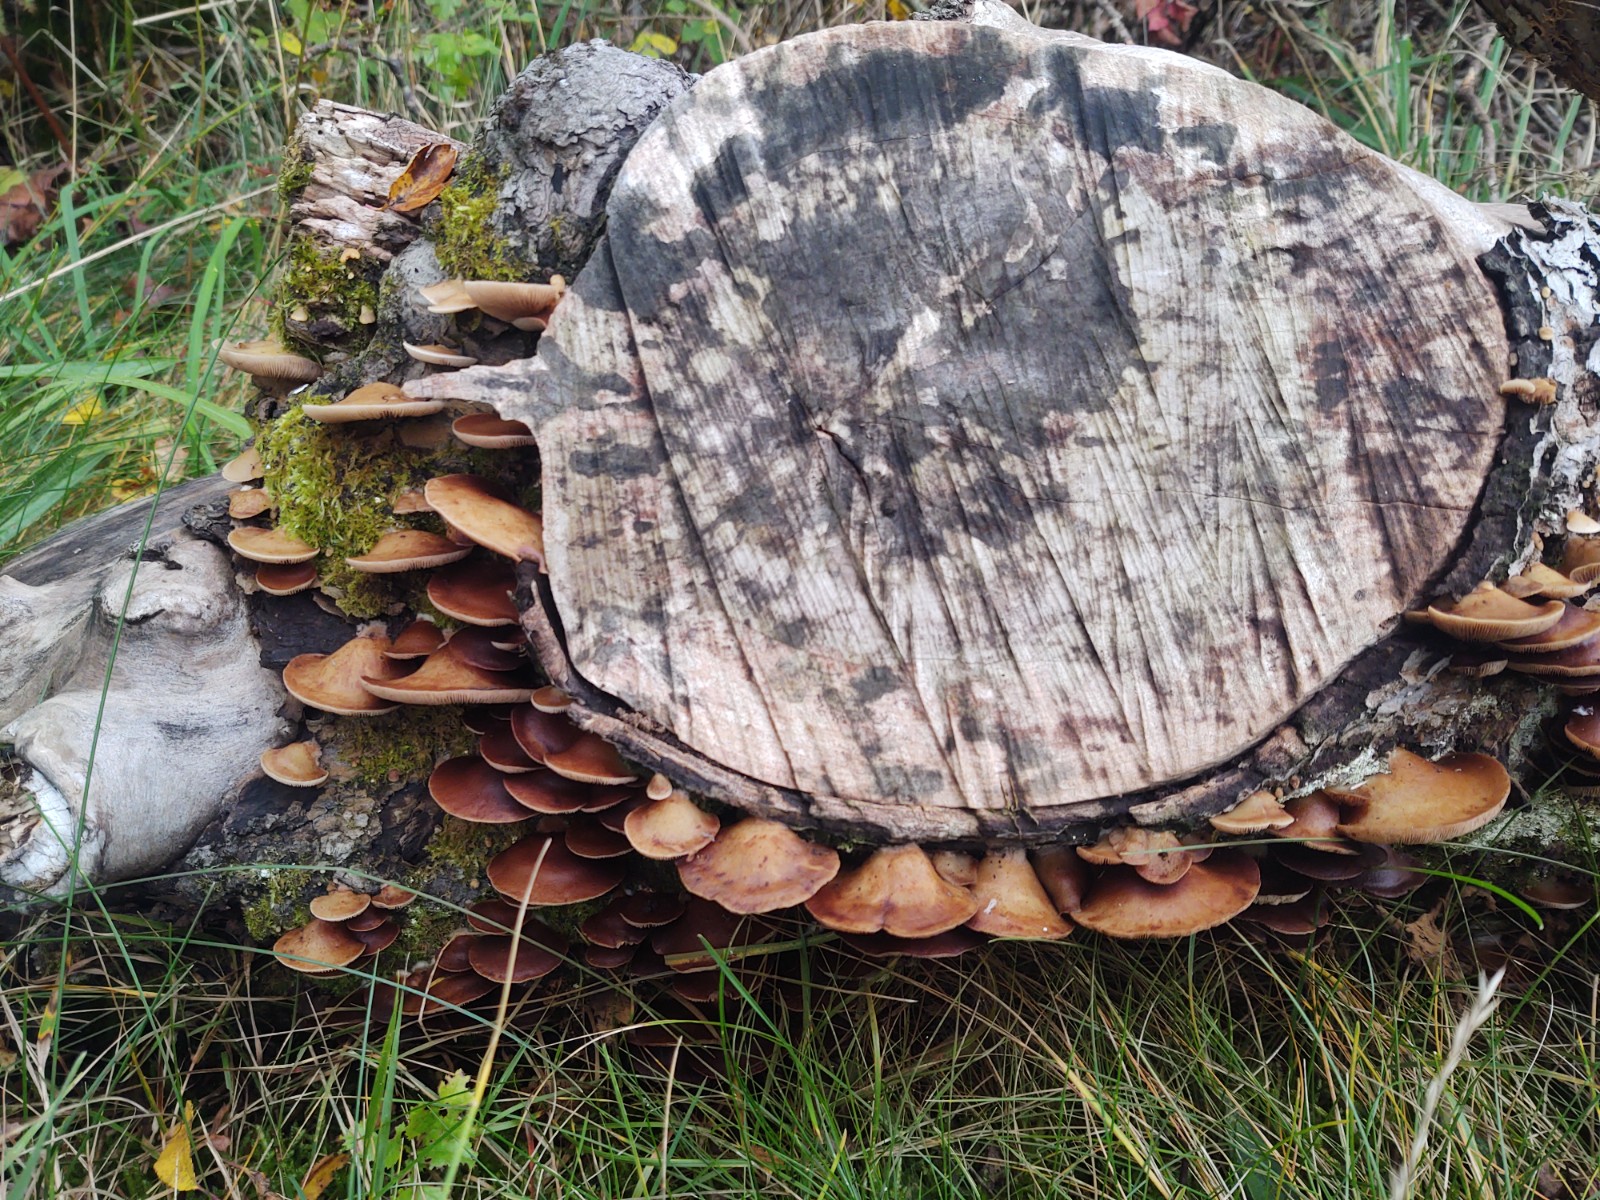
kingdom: Fungi
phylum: Basidiomycota
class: Agaricomycetes
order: Agaricales
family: Strophariaceae
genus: Deconica
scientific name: Deconica horizontalis
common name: ved-stråhat
